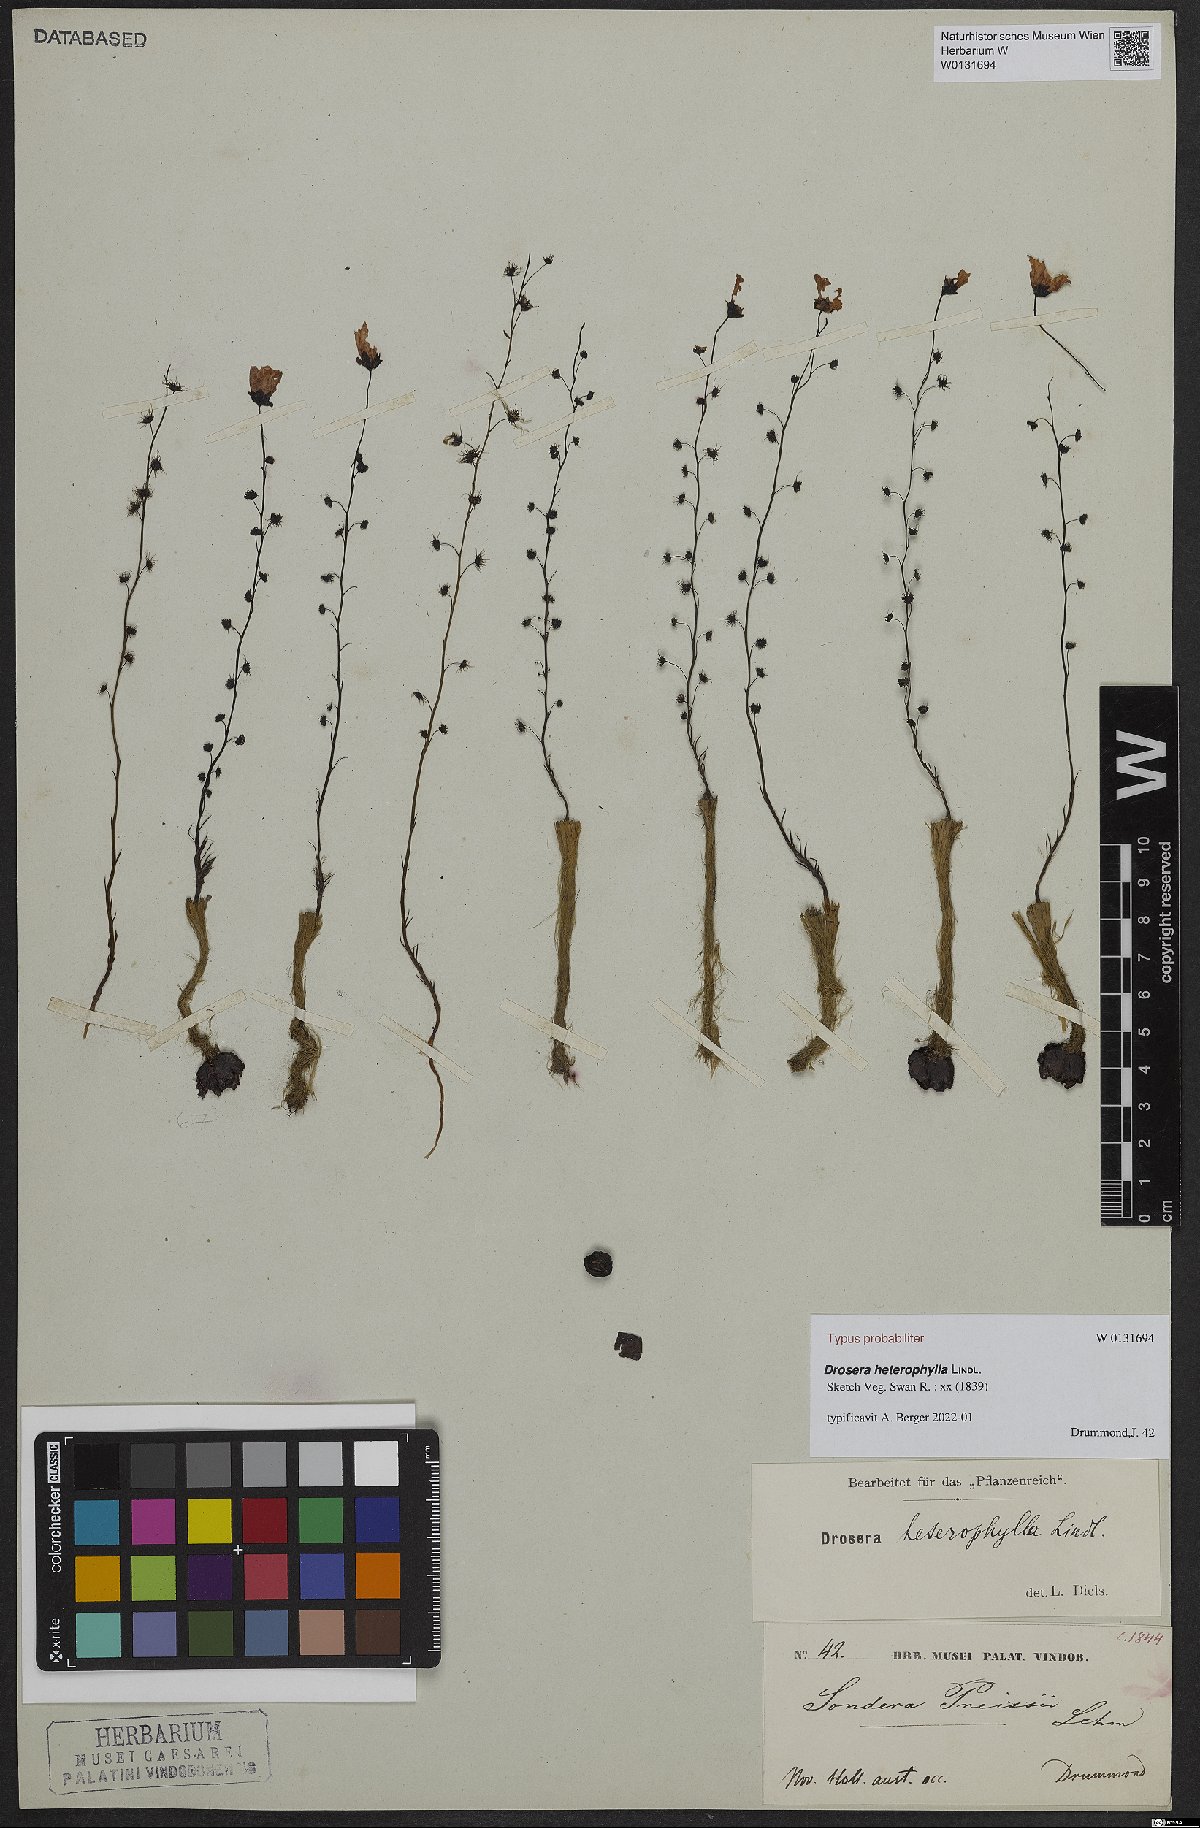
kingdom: Plantae
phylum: Tracheophyta
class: Magnoliopsida
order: Caryophyllales
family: Droseraceae
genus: Drosera
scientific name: Drosera heterophylla
